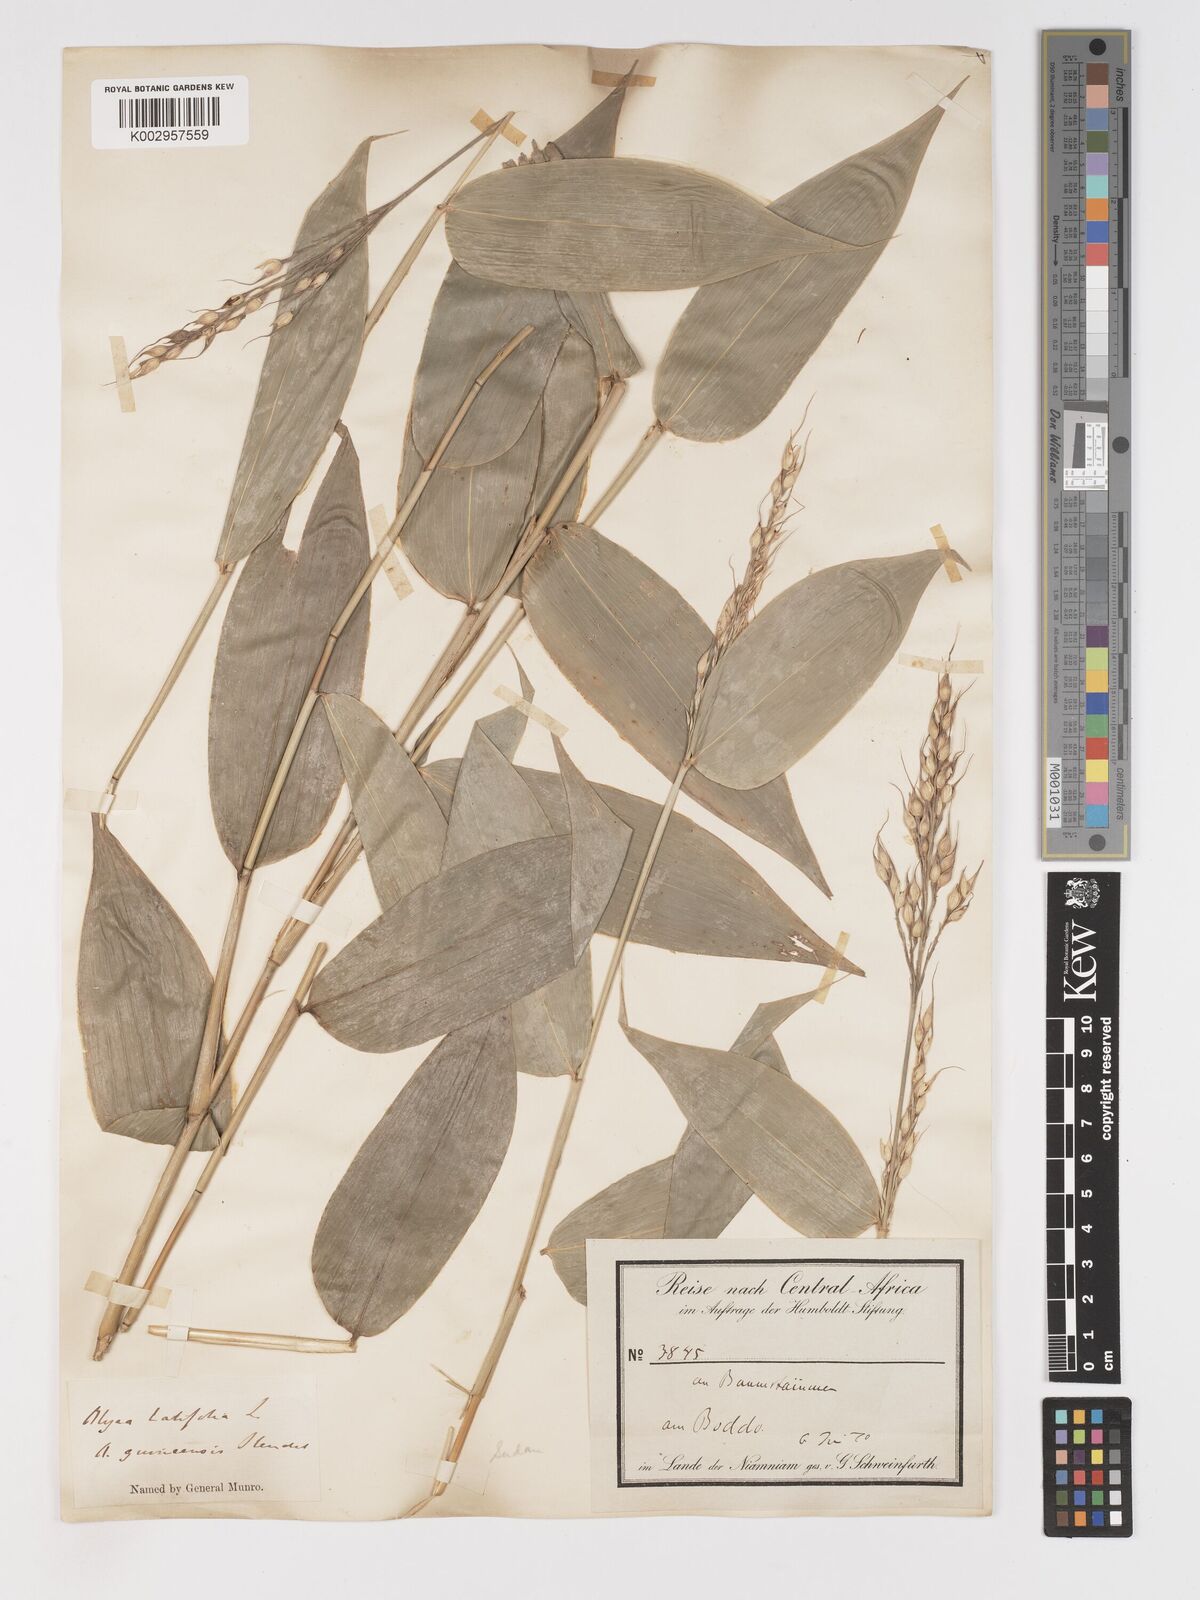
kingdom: Plantae
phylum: Tracheophyta
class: Liliopsida
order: Poales
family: Poaceae
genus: Olyra
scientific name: Olyra latifolia
